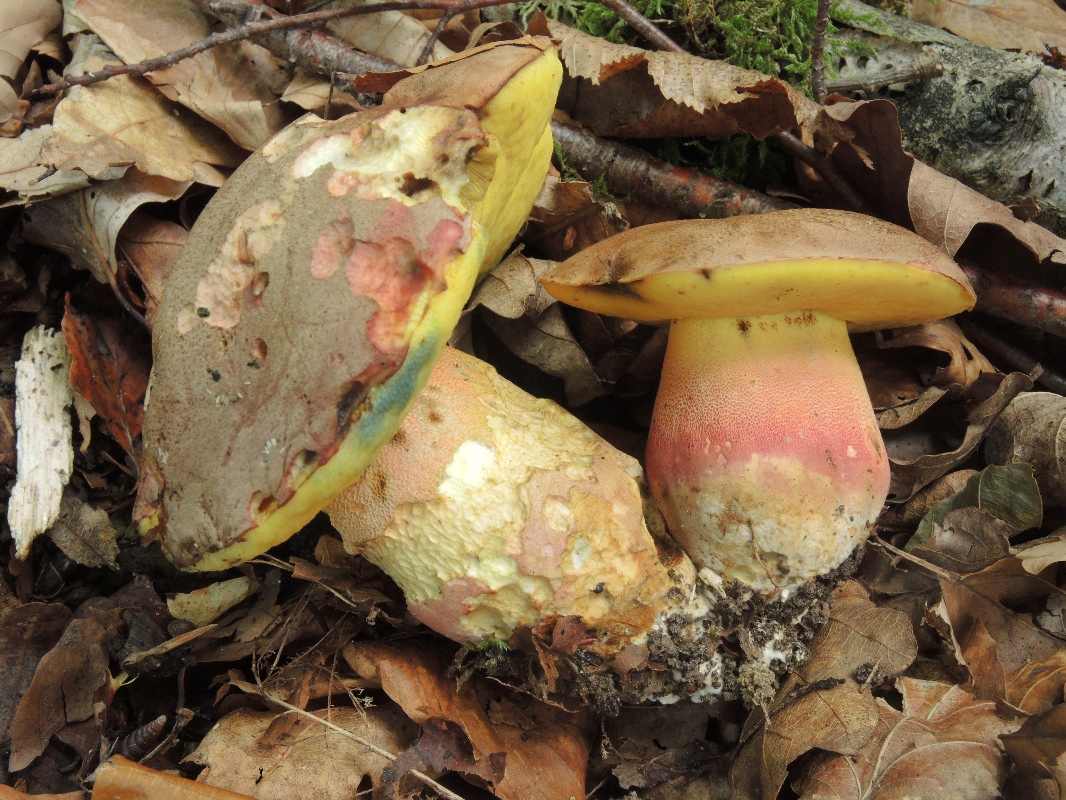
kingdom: Fungi
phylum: Basidiomycota
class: Agaricomycetes
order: Boletales
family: Boletaceae
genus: Butyriboletus
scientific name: Butyriboletus fuscoroseus
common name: brunrosa rørhat
